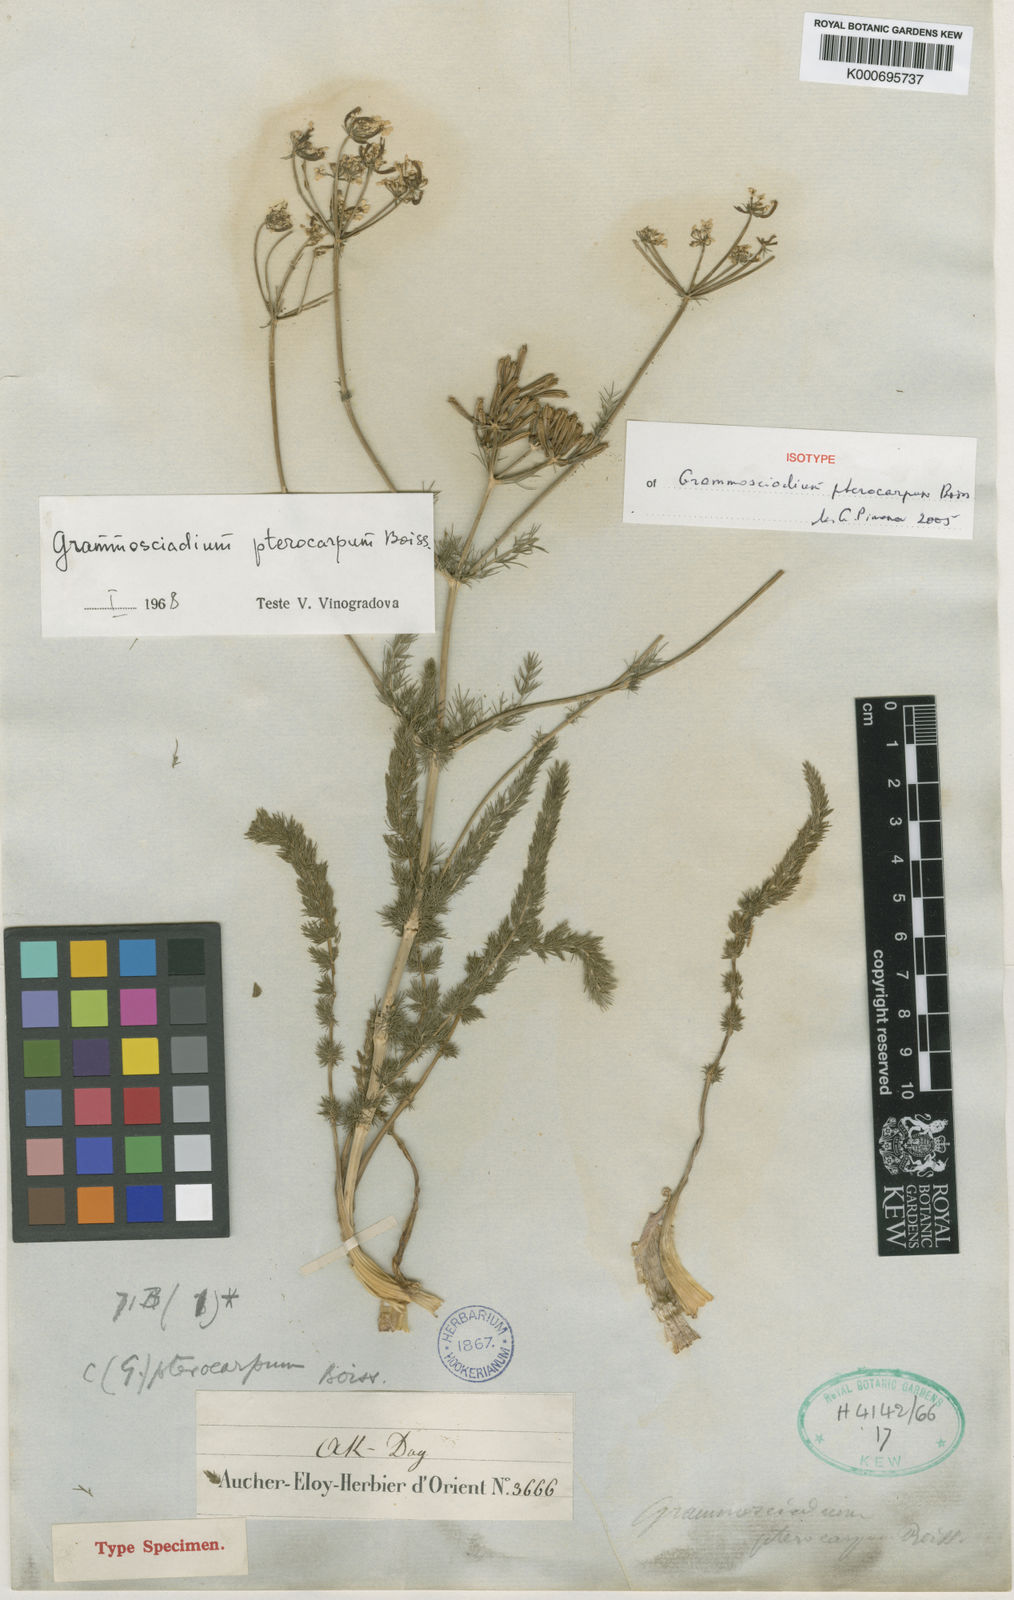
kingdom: Plantae
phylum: Tracheophyta
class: Magnoliopsida
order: Apiales
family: Apiaceae
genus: Caropodium
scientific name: Caropodium pterocarpum
